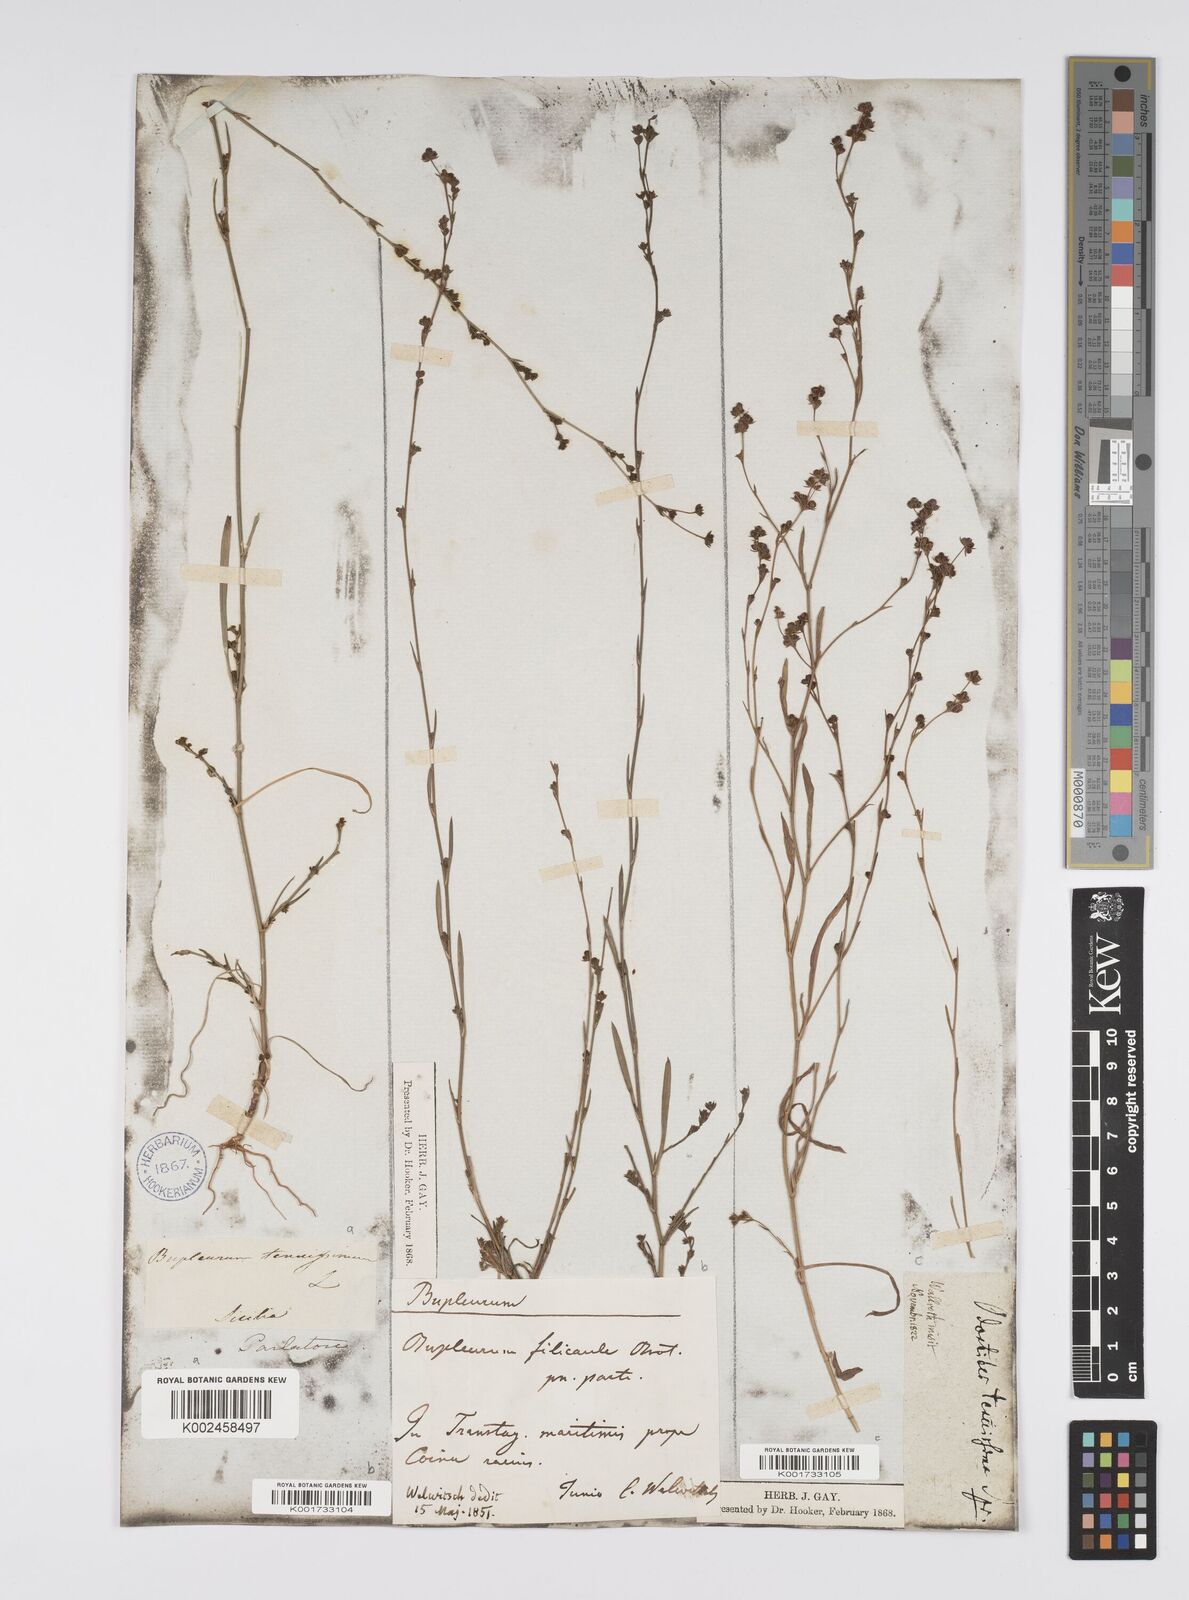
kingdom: Plantae
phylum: Tracheophyta
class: Magnoliopsida
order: Apiales
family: Apiaceae
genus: Bupleurum
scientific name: Bupleurum tenuissimum
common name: Slender hare's-ear
